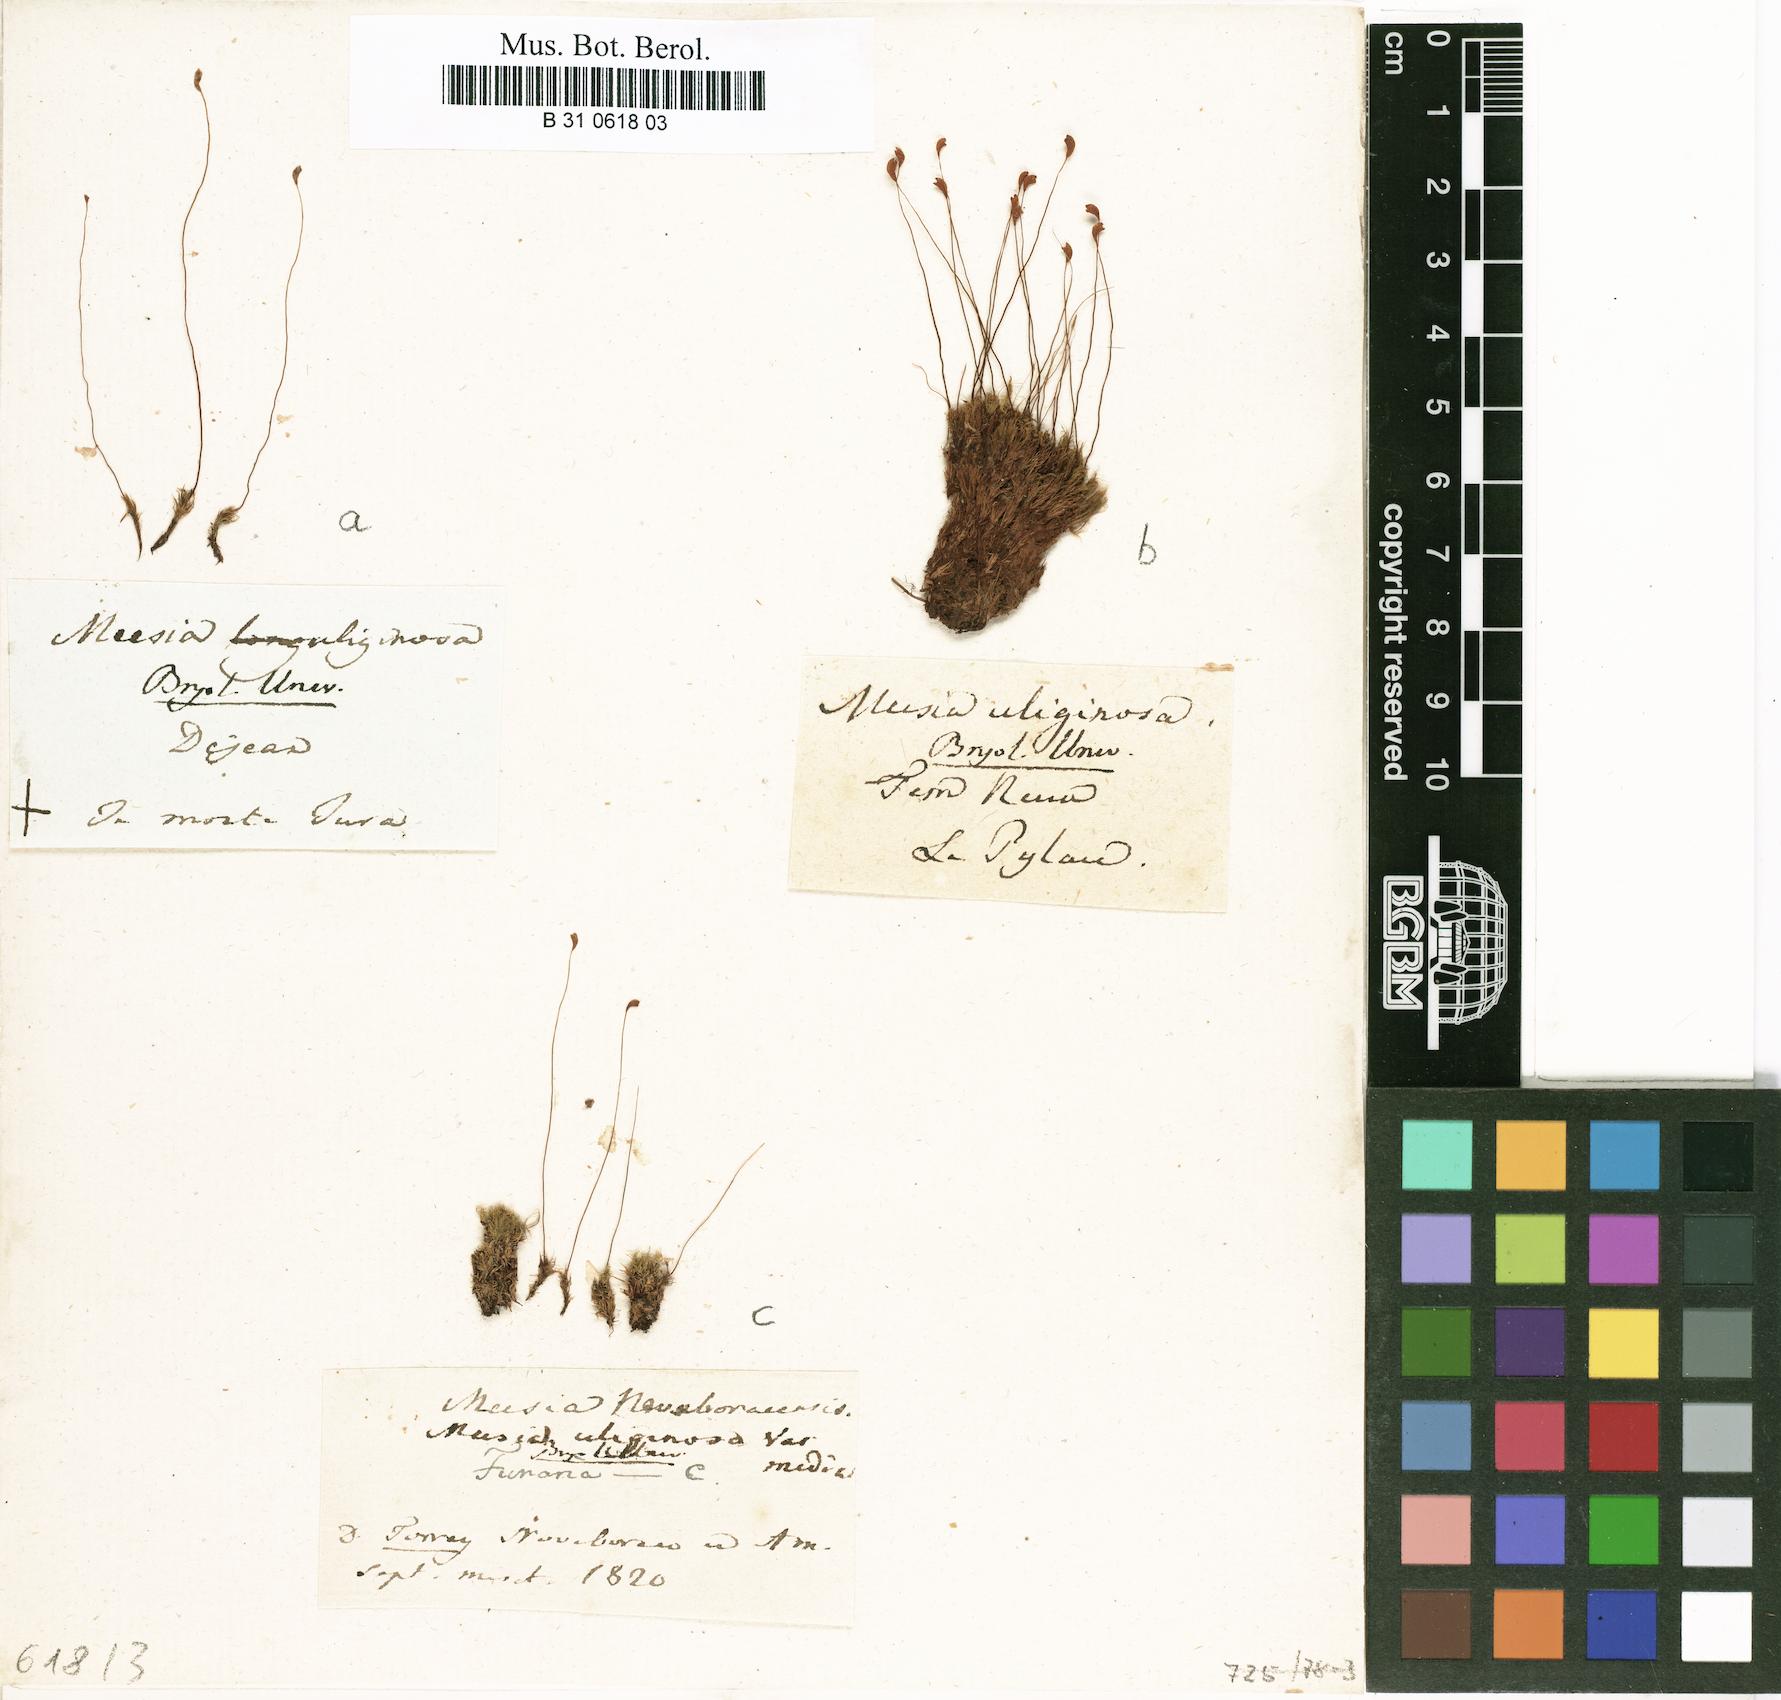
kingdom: Plantae
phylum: Bryophyta
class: Bryopsida
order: Splachnales
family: Meesiaceae
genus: Meesia
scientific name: Meesia uliginosa
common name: Capillary thread moss
